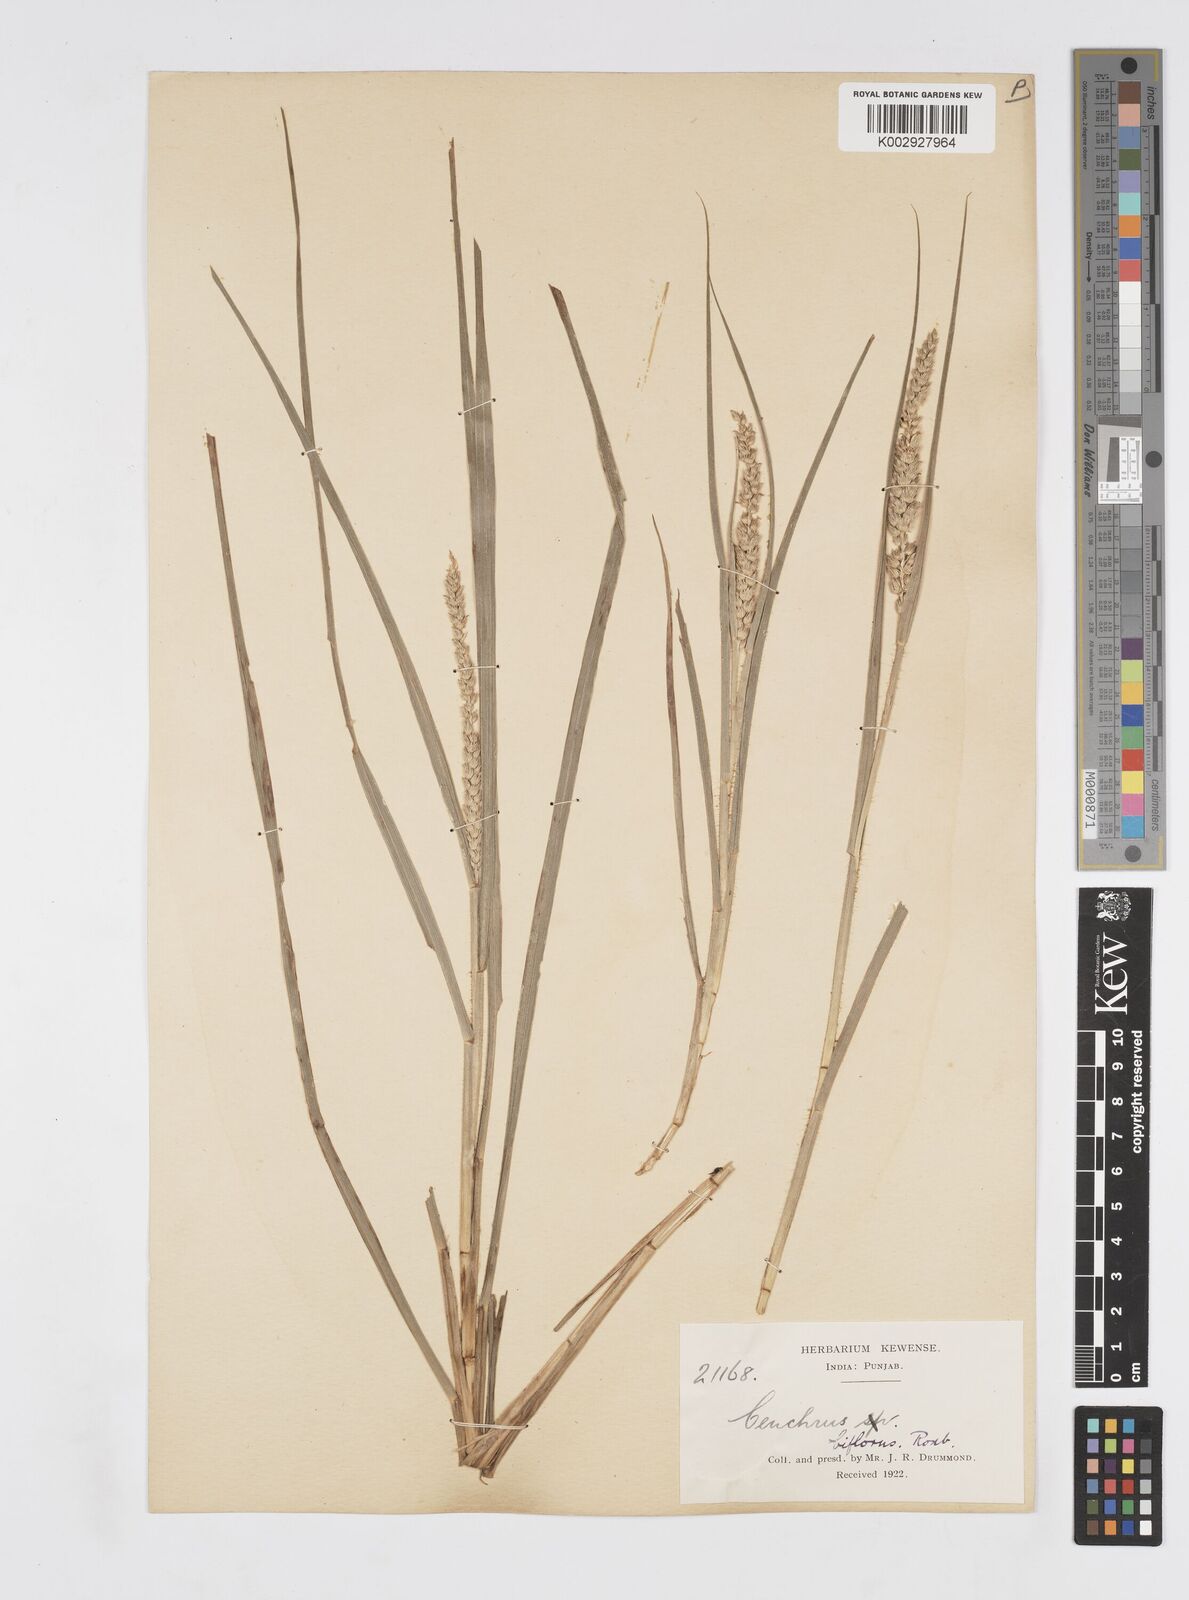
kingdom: Plantae
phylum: Tracheophyta
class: Liliopsida
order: Poales
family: Poaceae
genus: Cenchrus
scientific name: Cenchrus setigerus
